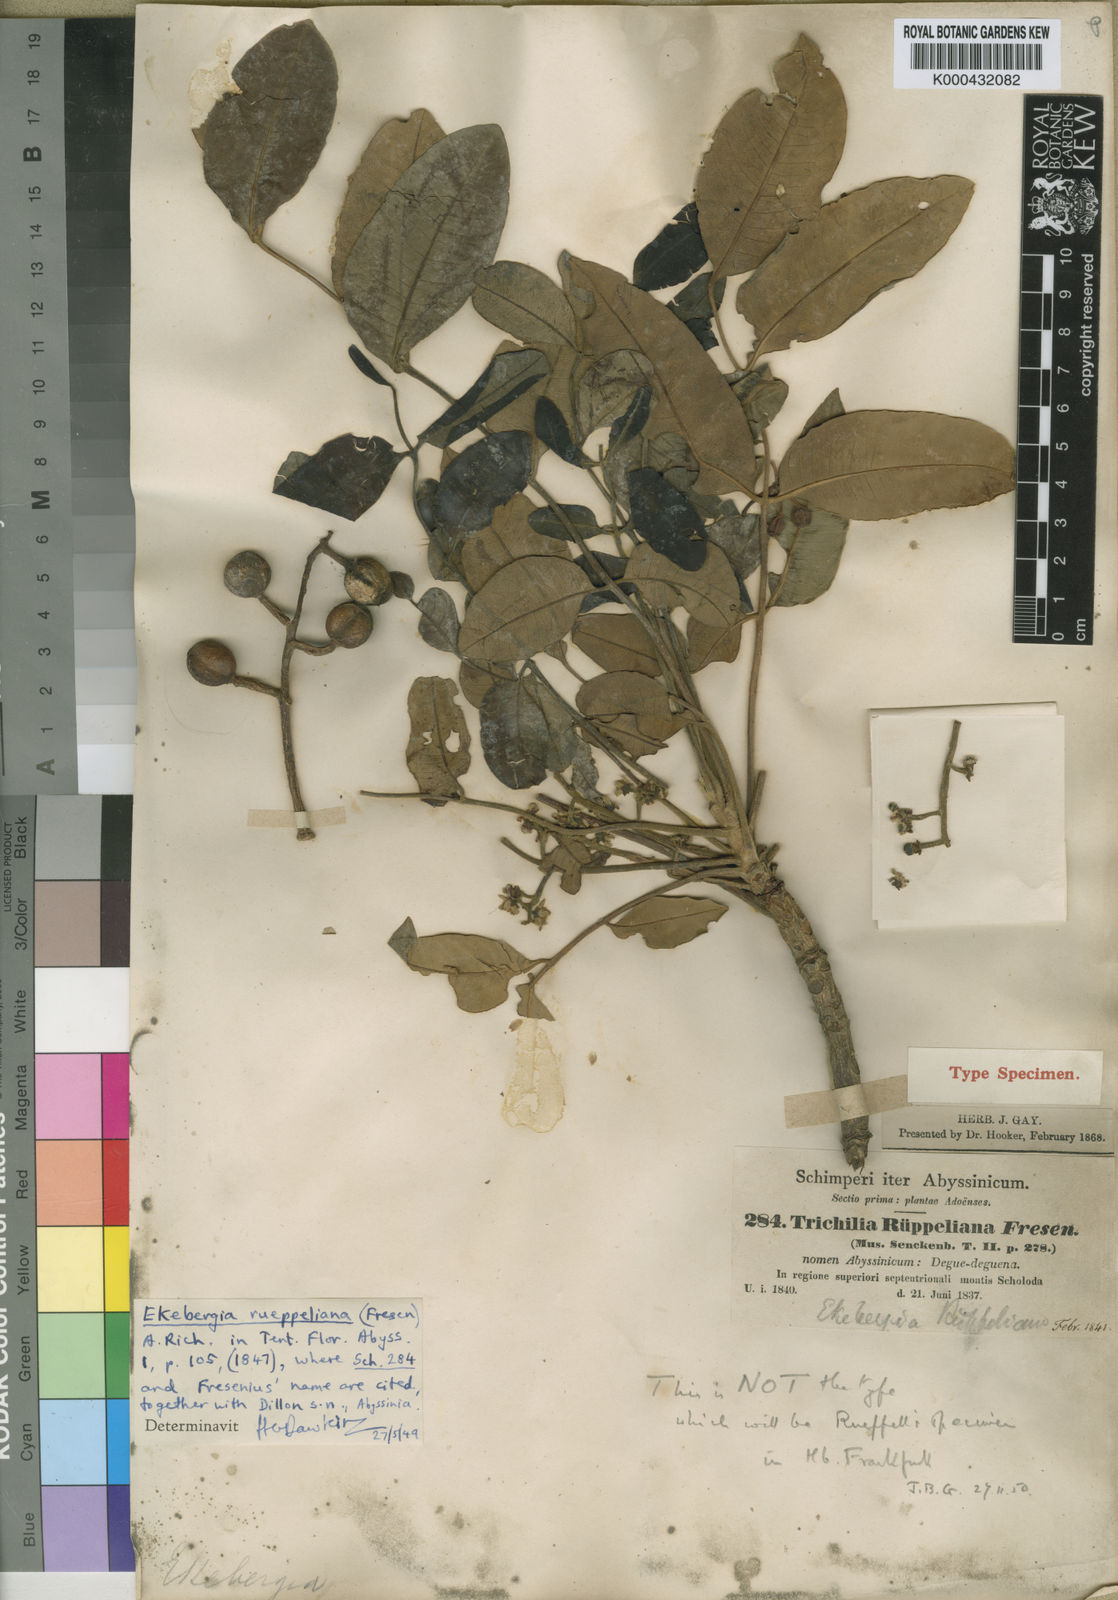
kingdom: Plantae
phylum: Tracheophyta
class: Magnoliopsida
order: Sapindales
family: Meliaceae
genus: Ekebergia
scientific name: Ekebergia capensis
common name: Cape-ash
